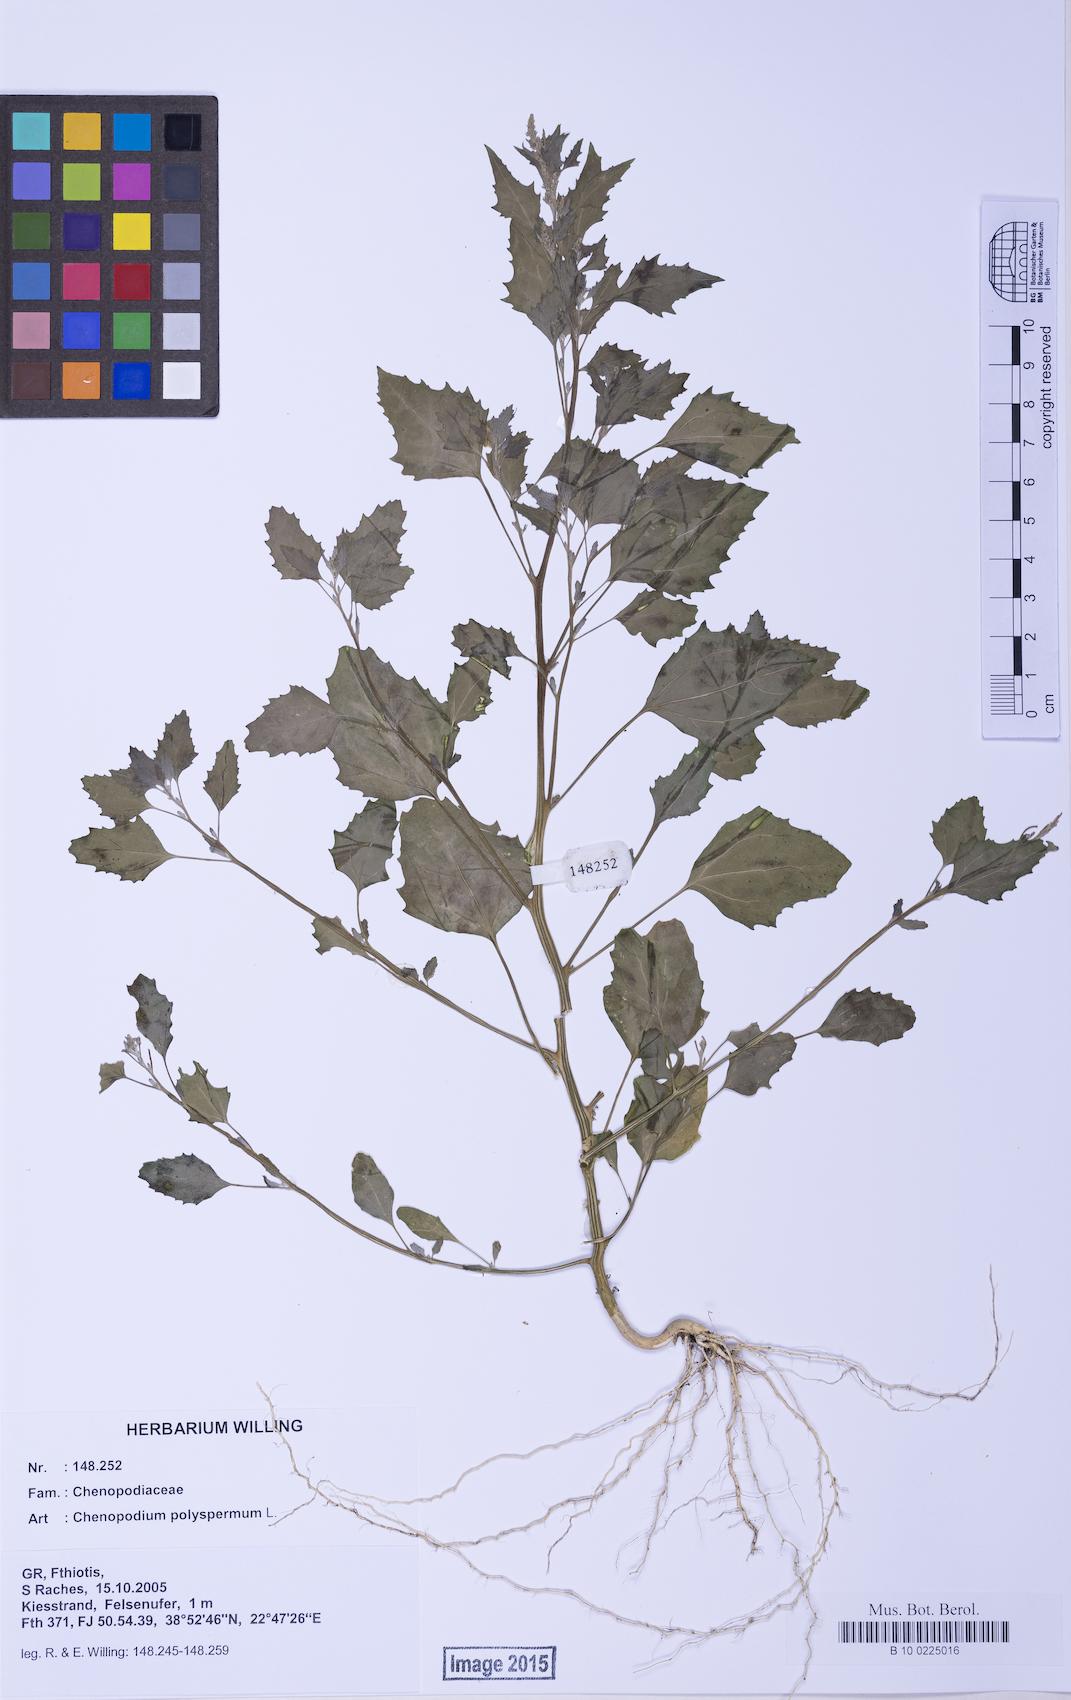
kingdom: Plantae
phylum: Tracheophyta
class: Magnoliopsida
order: Caryophyllales
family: Amaranthaceae
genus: Chenopodium
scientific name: Chenopodium album
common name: Fat-hen
